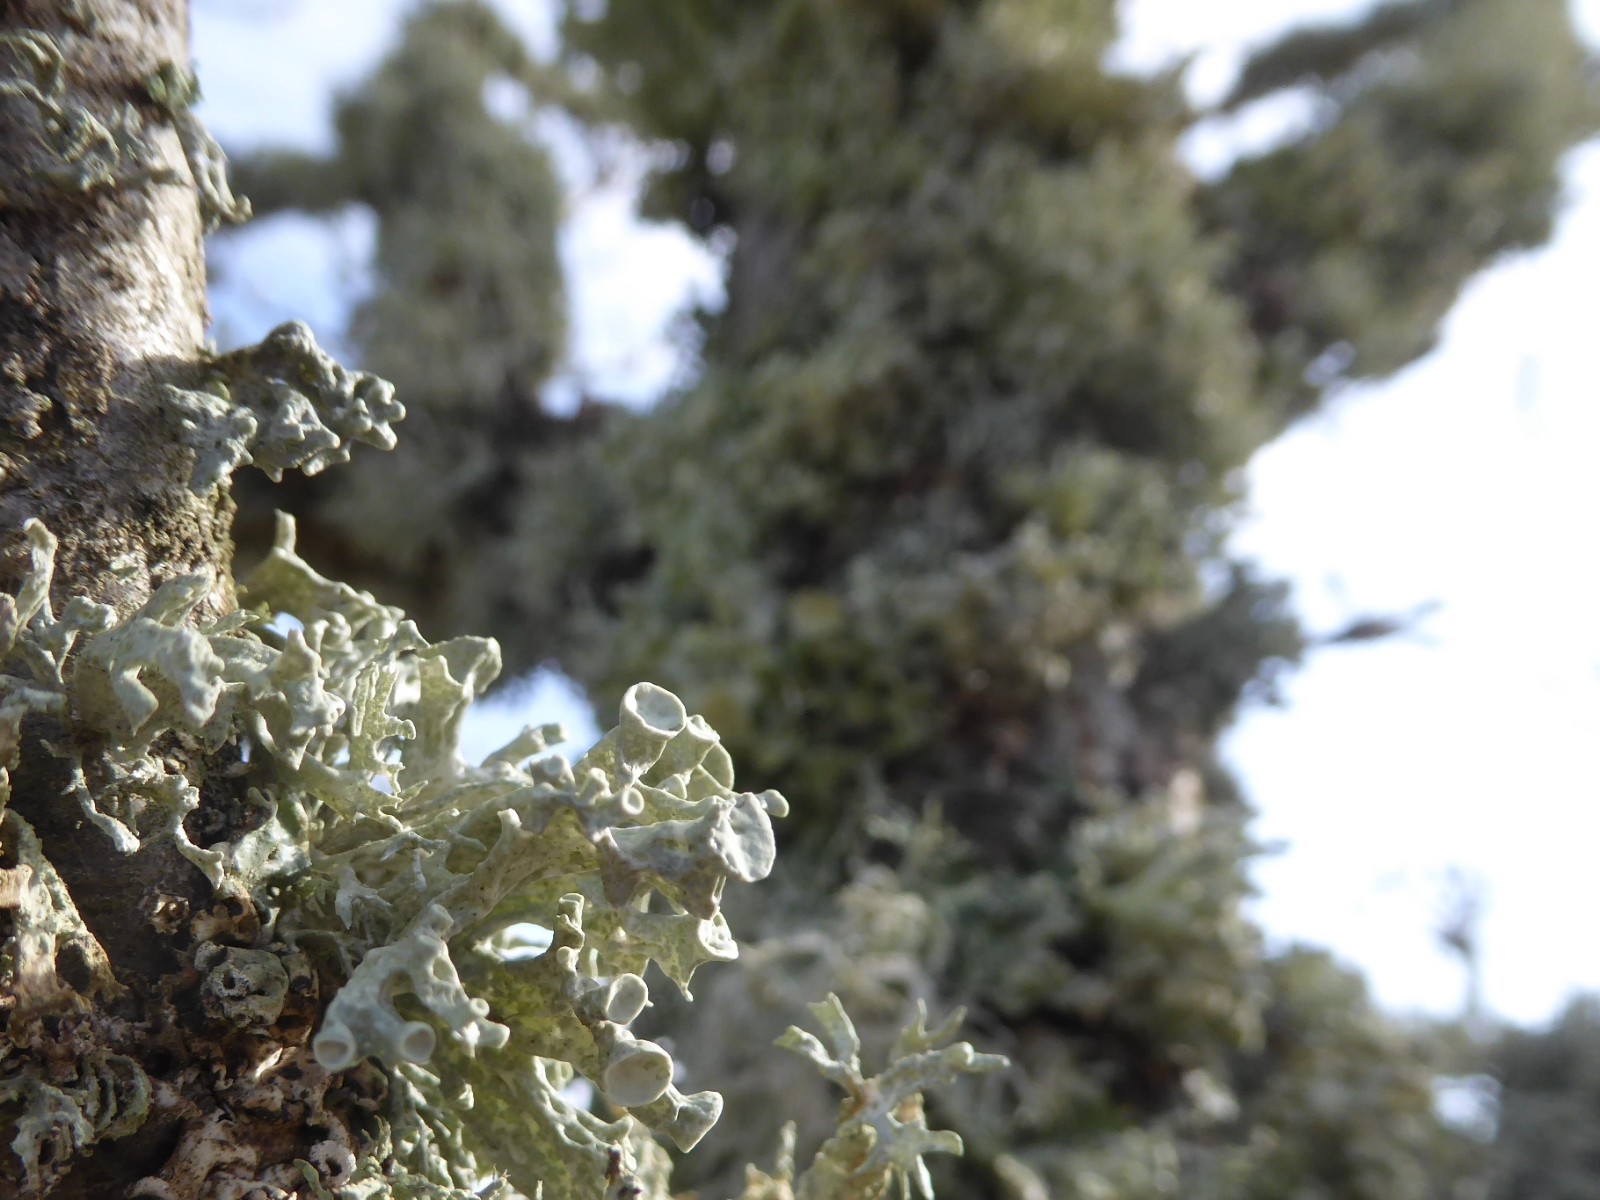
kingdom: Fungi
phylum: Ascomycota
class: Lecanoromycetes
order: Lecanorales
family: Ramalinaceae
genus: Ramalina
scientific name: Ramalina fastigiata
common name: tue-grenlav
